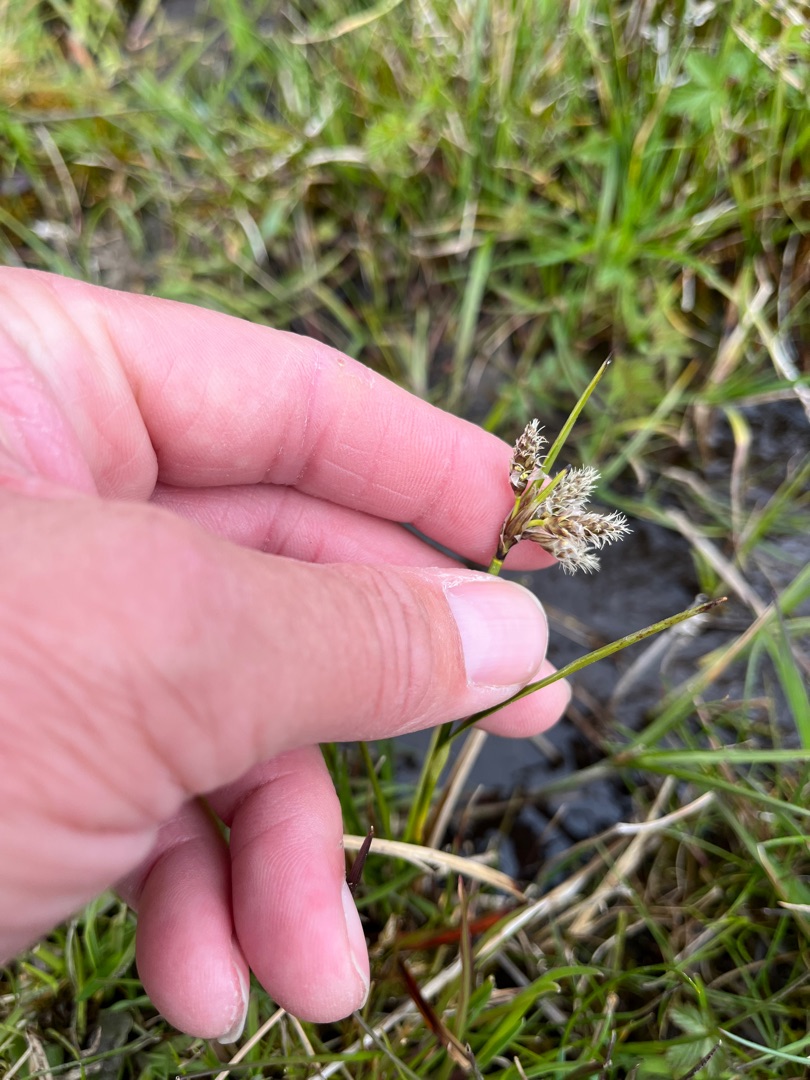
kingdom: Plantae
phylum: Tracheophyta
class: Liliopsida
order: Poales
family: Cyperaceae
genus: Eriophorum
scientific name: Eriophorum angustifolium
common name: Smalbladet kæruld
